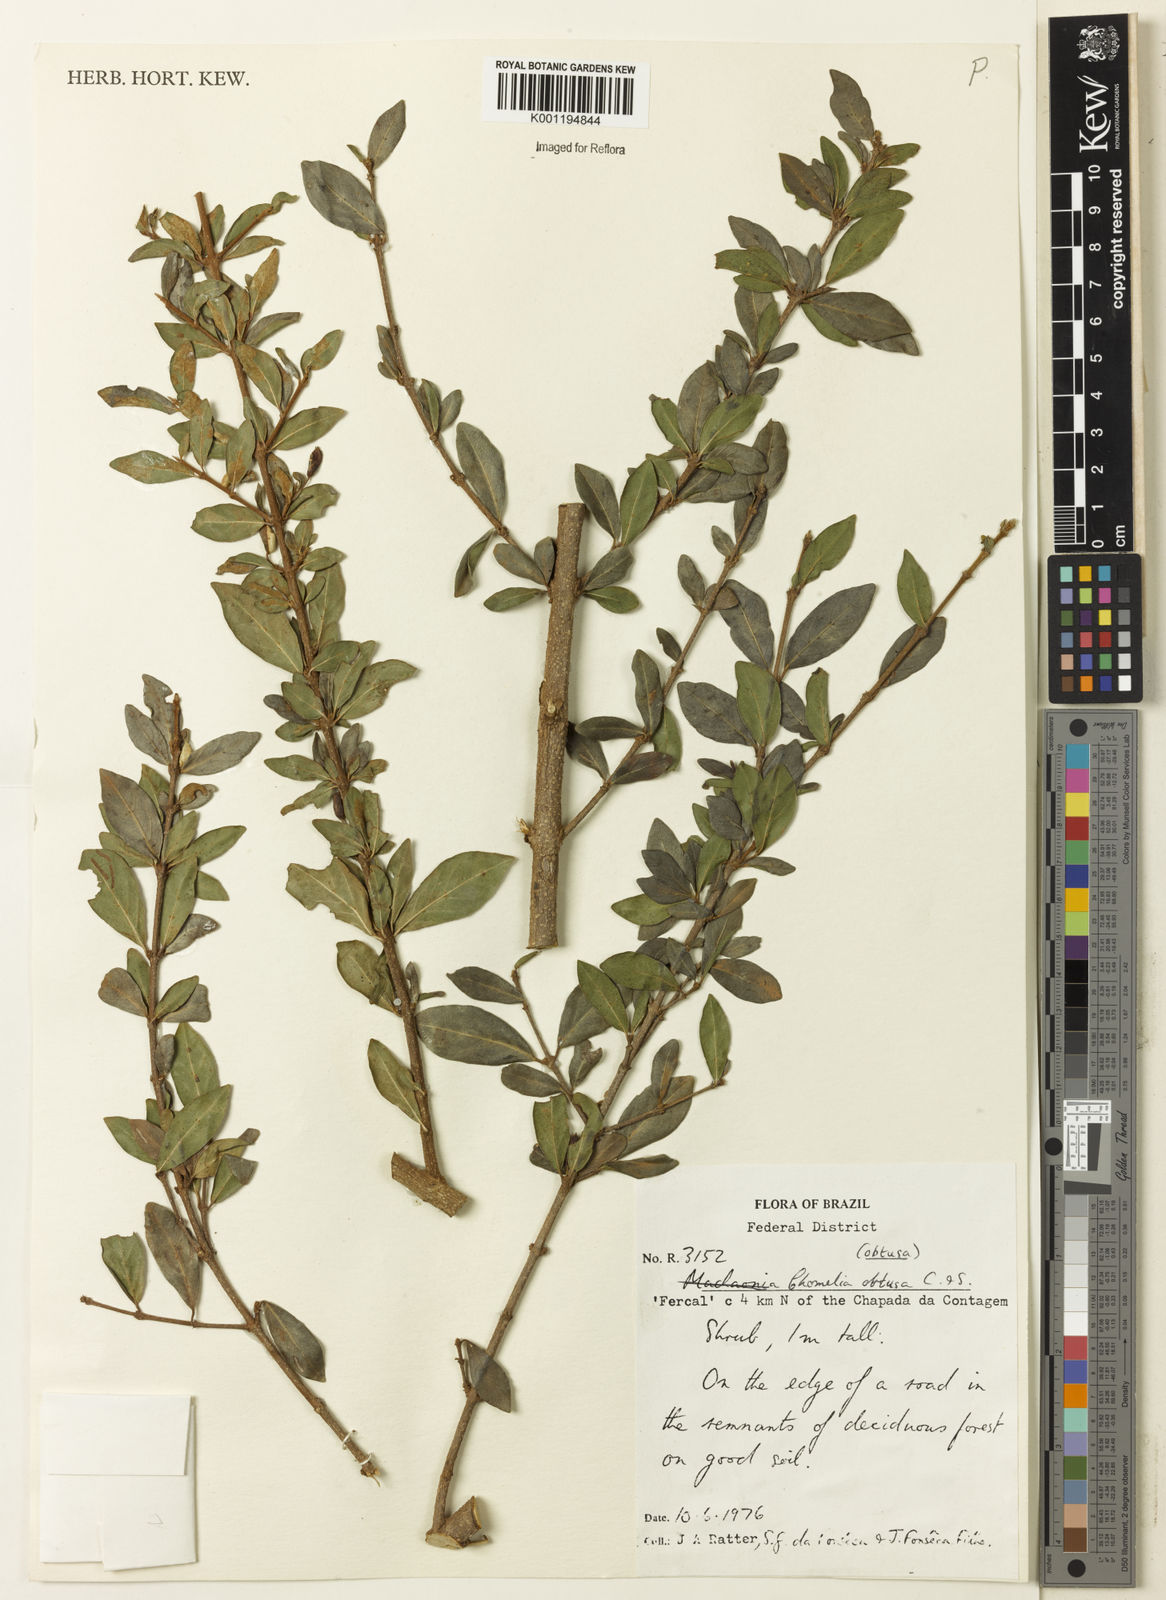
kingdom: Plantae
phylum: Tracheophyta
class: Magnoliopsida
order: Gentianales
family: Rubiaceae
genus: Chomelia
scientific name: Chomelia obtusa
